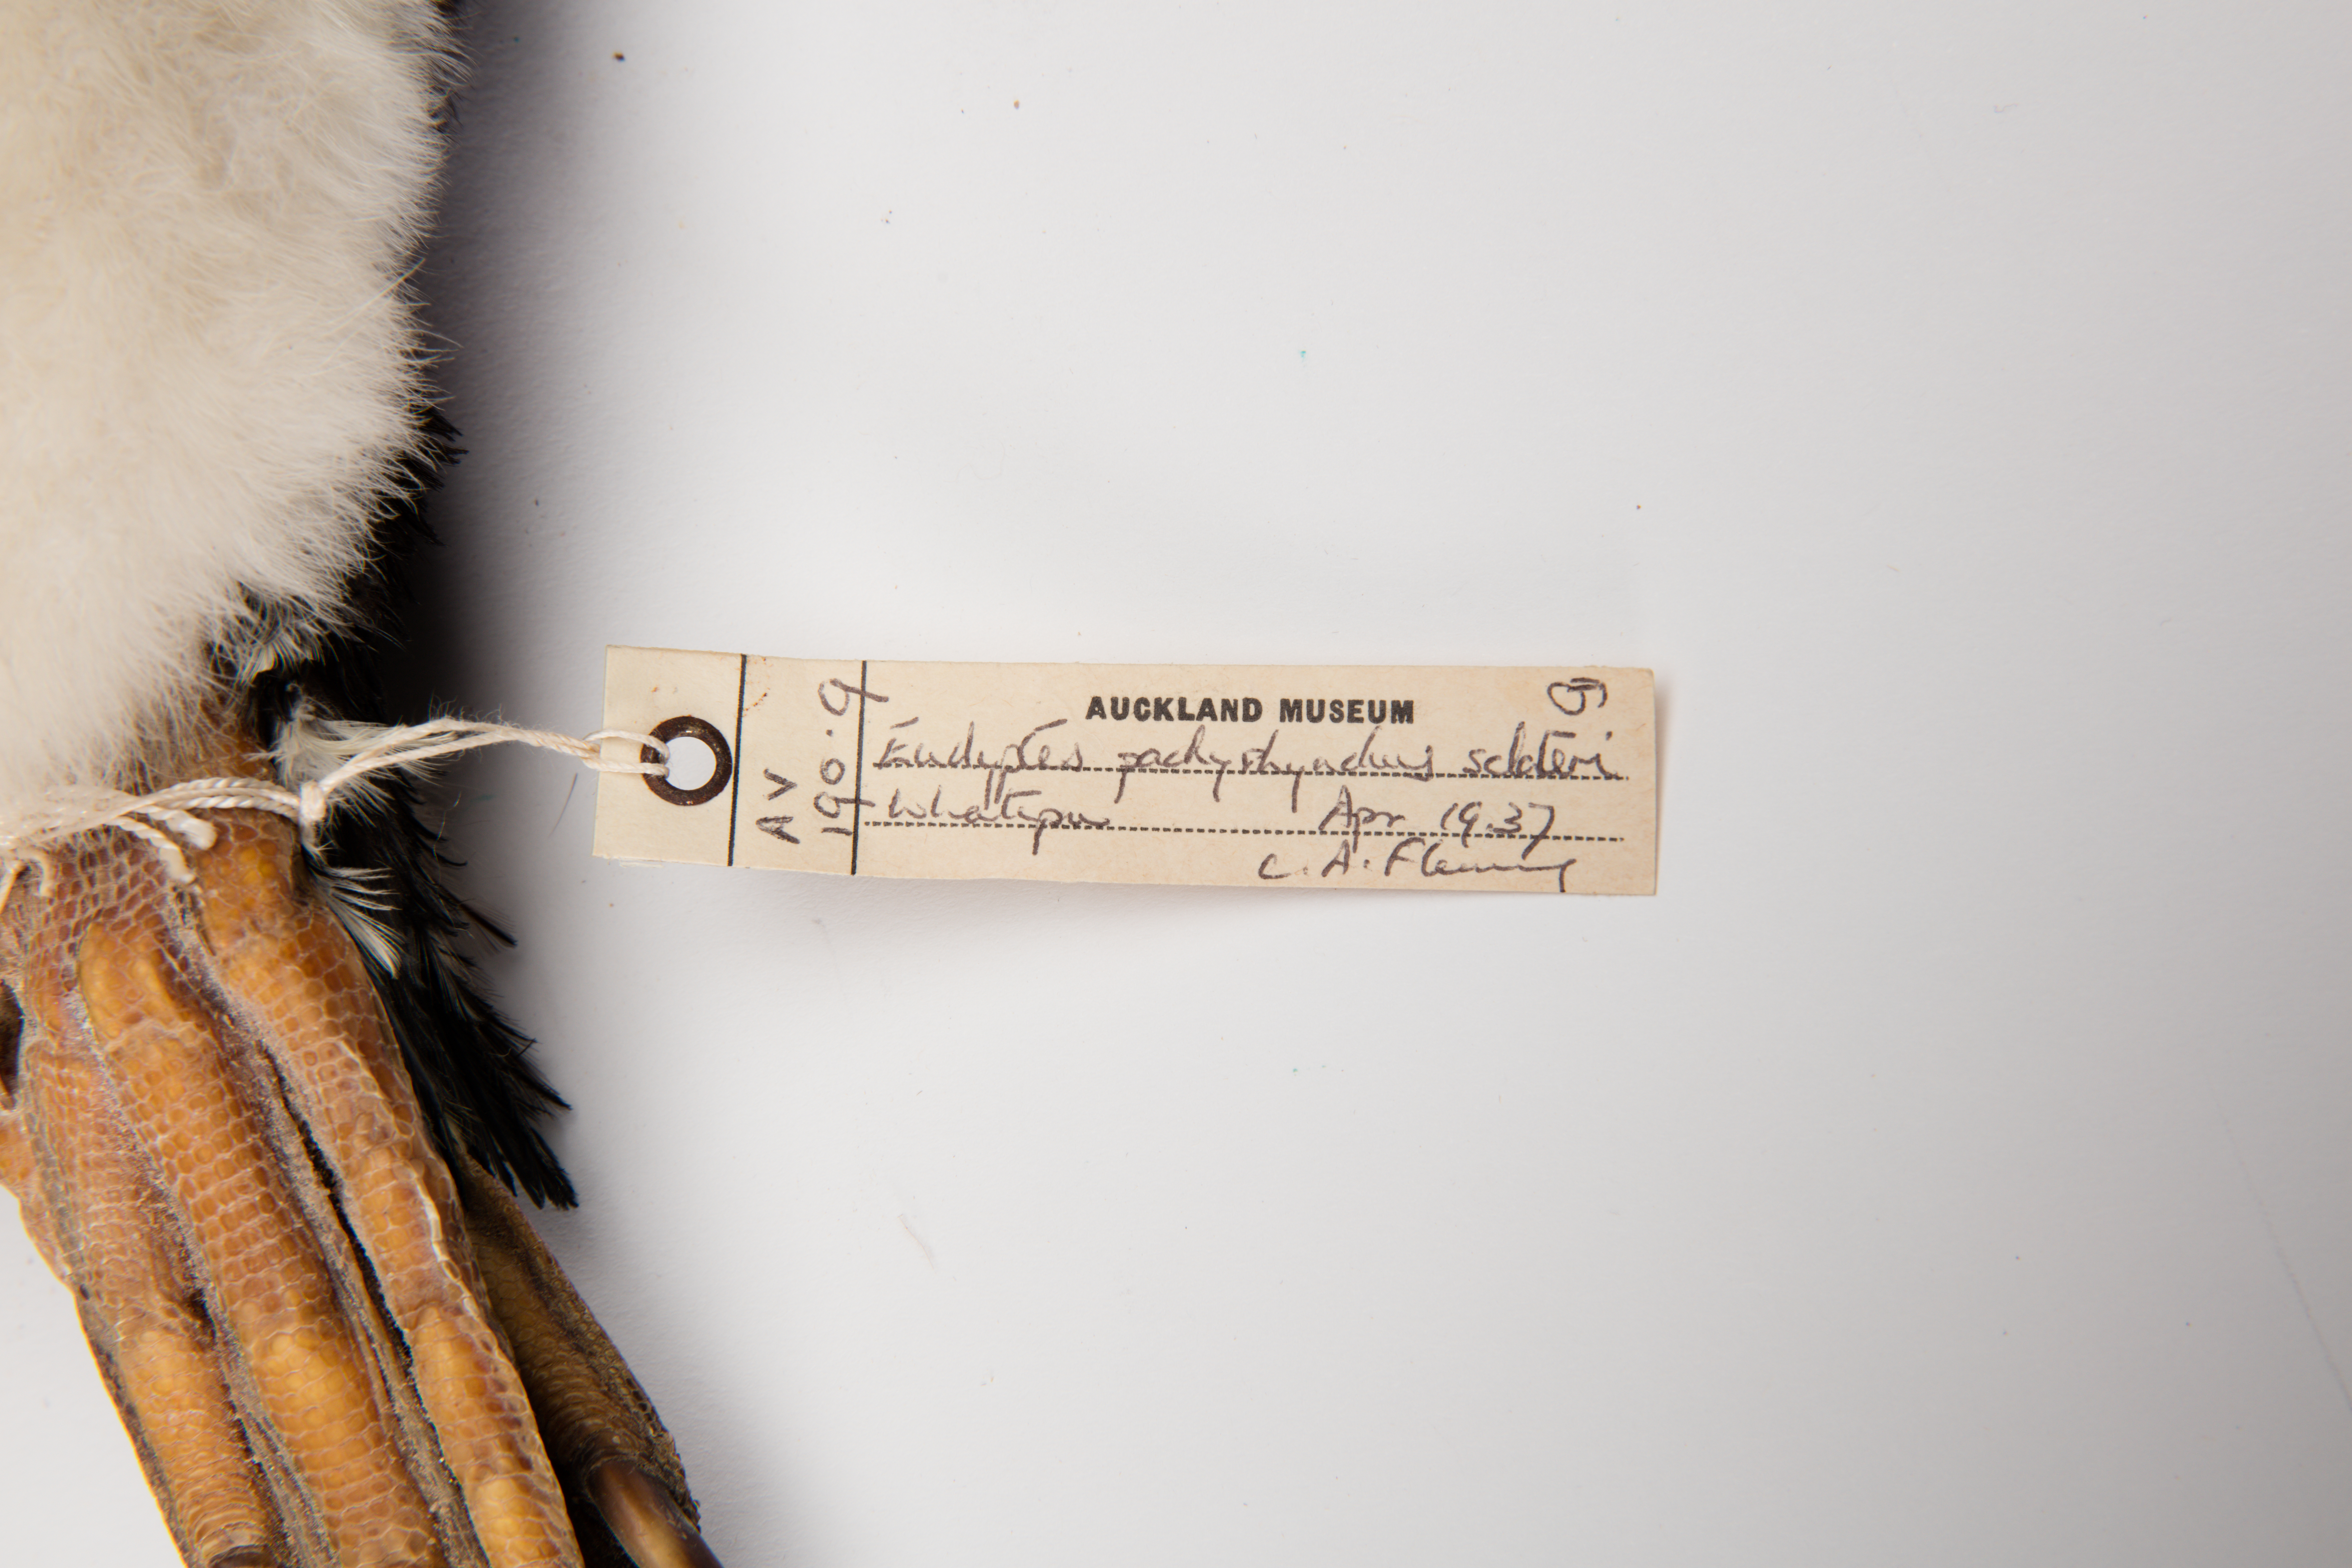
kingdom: Animalia
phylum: Chordata
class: Aves
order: Sphenisciformes
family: Spheniscidae
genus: Eudyptes
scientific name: Eudyptes sclateri
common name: Erect-crested penguin
